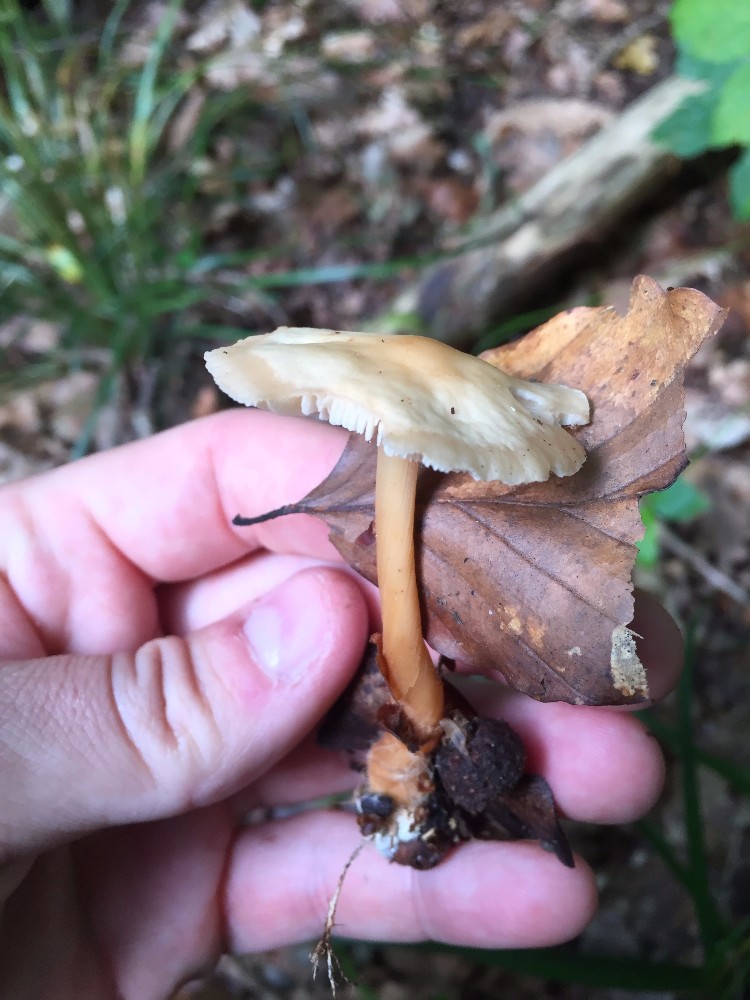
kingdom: Fungi
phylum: Basidiomycota
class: Agaricomycetes
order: Agaricales
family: Omphalotaceae
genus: Gymnopus
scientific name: Gymnopus dryophilus
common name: løv-fladhat
